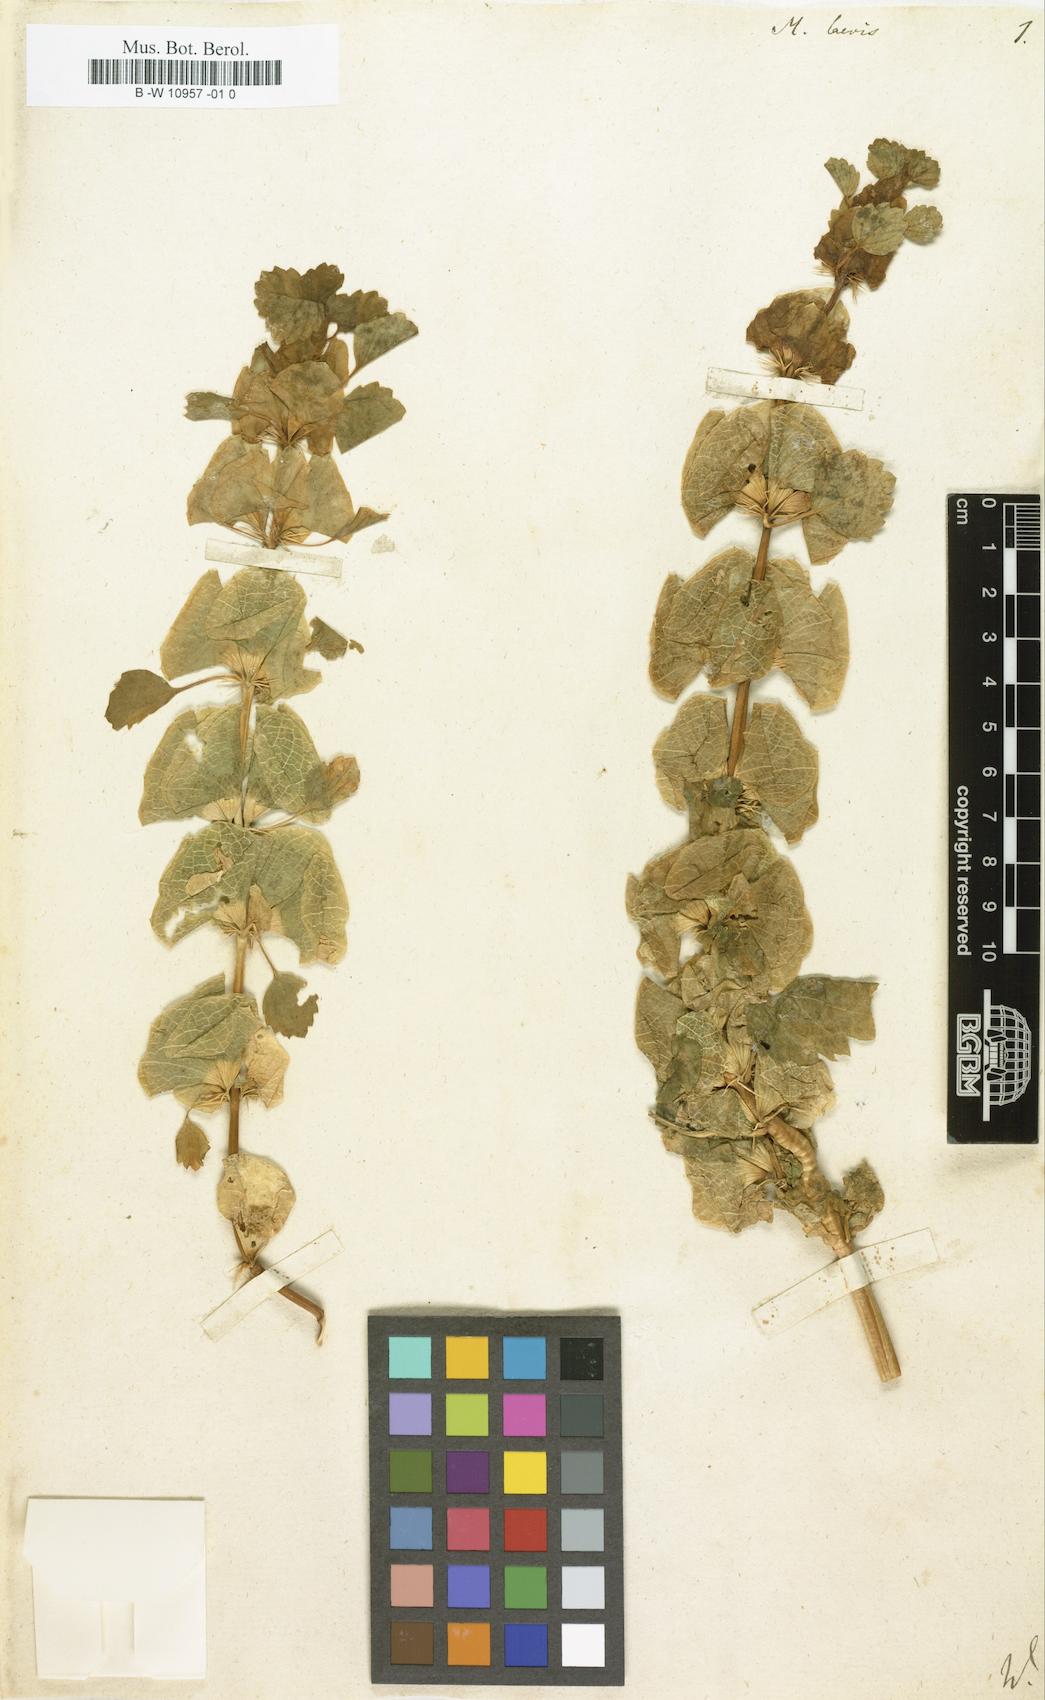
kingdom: Plantae
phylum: Tracheophyta
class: Magnoliopsida
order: Lamiales
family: Lamiaceae
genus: Moluccella
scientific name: Moluccella laevis
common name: Shellflower
